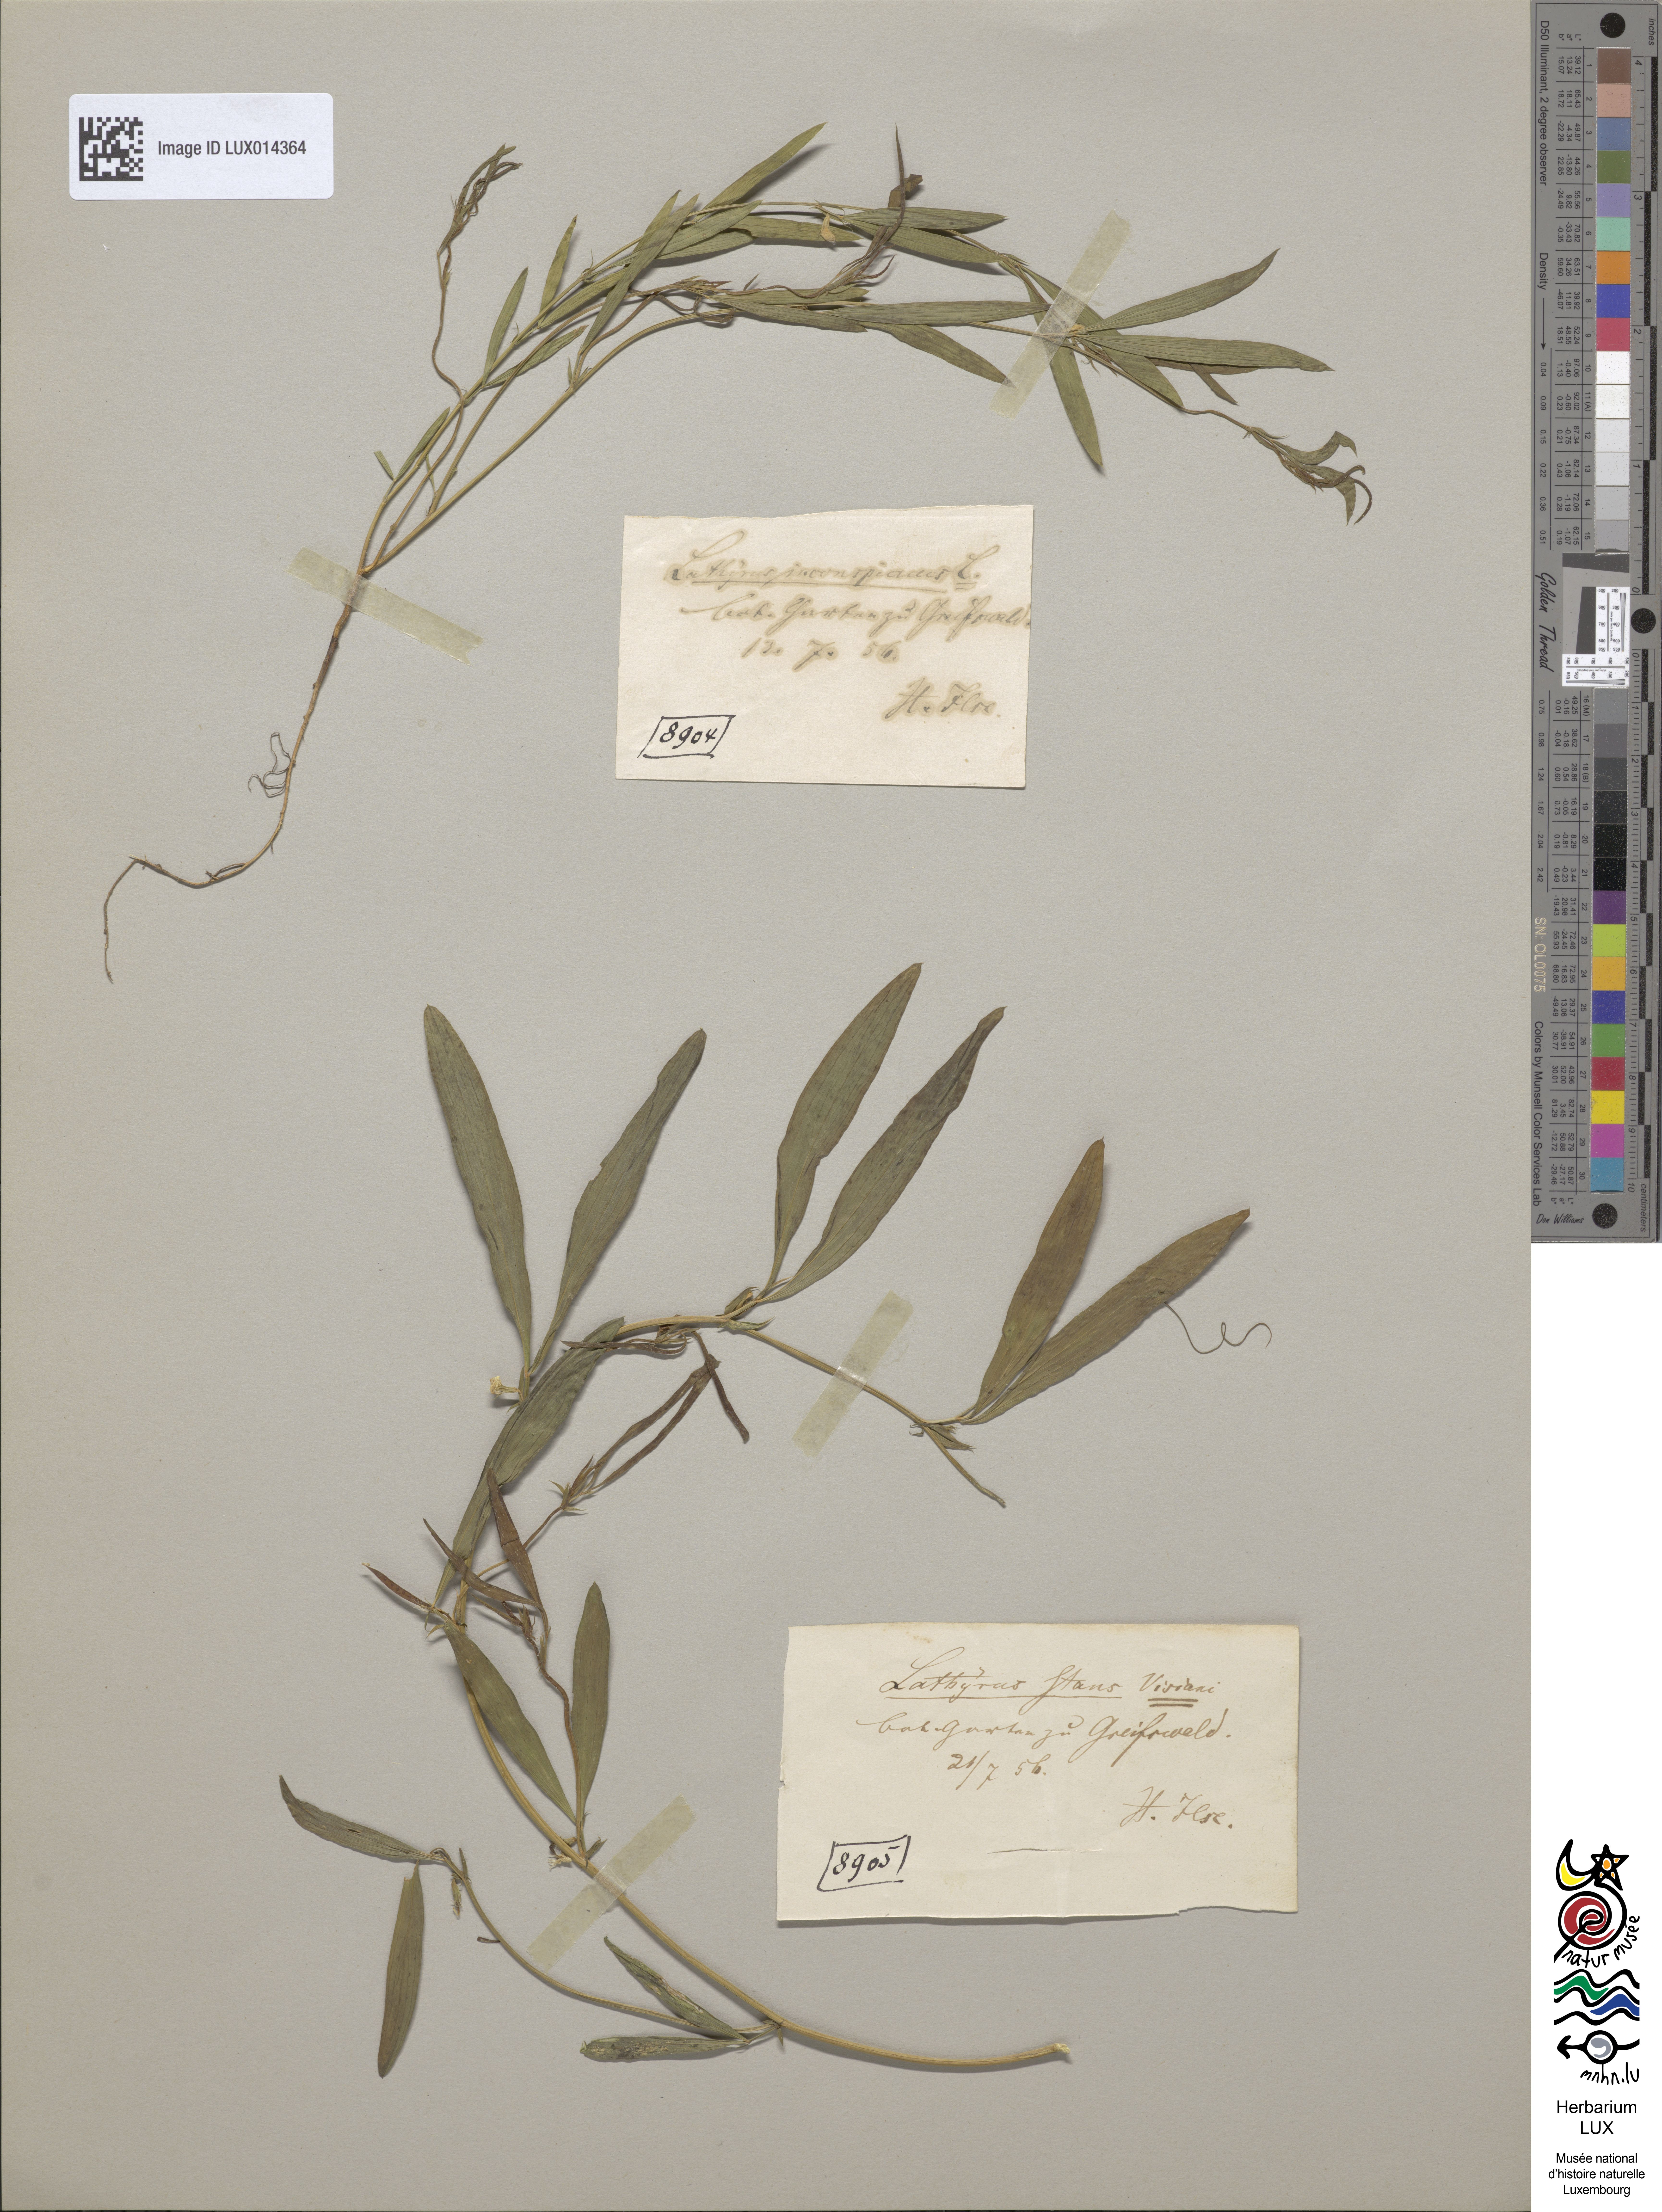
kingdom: Plantae
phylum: Tracheophyta
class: Magnoliopsida
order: Fabales
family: Fabaceae
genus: Lathyrus
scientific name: Lathyrus inconspicuus
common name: Inconspicuous pea
